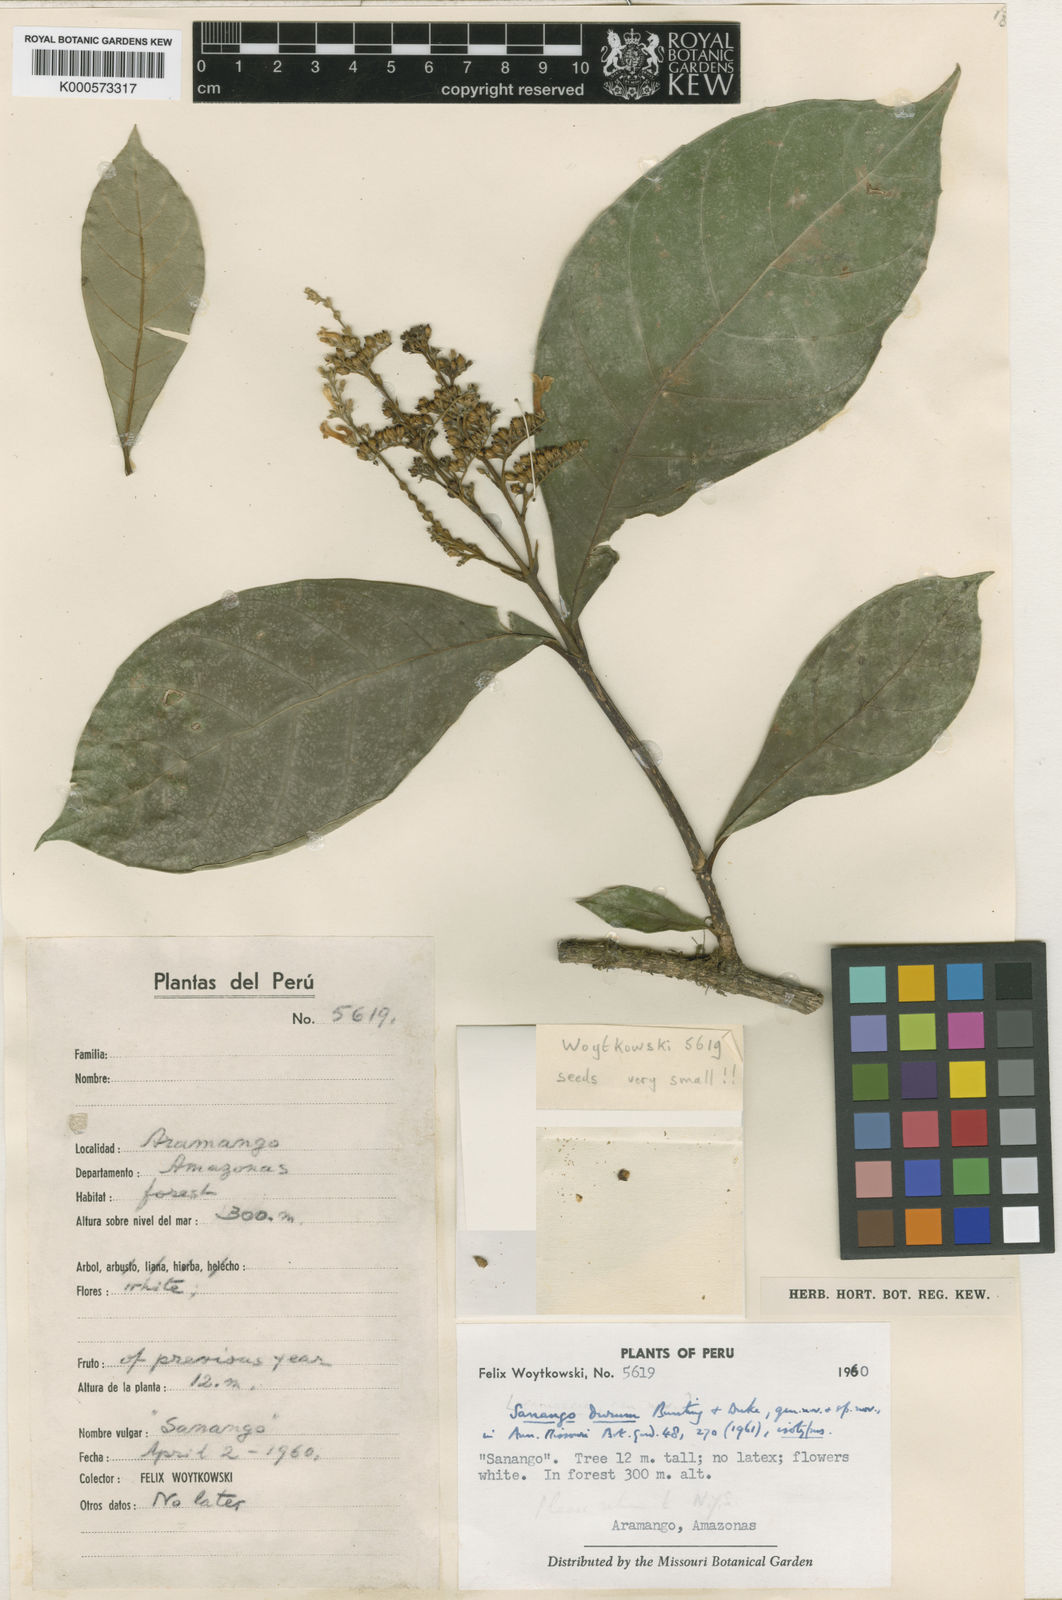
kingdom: Plantae
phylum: Tracheophyta
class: Magnoliopsida
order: Lamiales
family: Gesneriaceae
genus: Sanango
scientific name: Sanango racemosum
